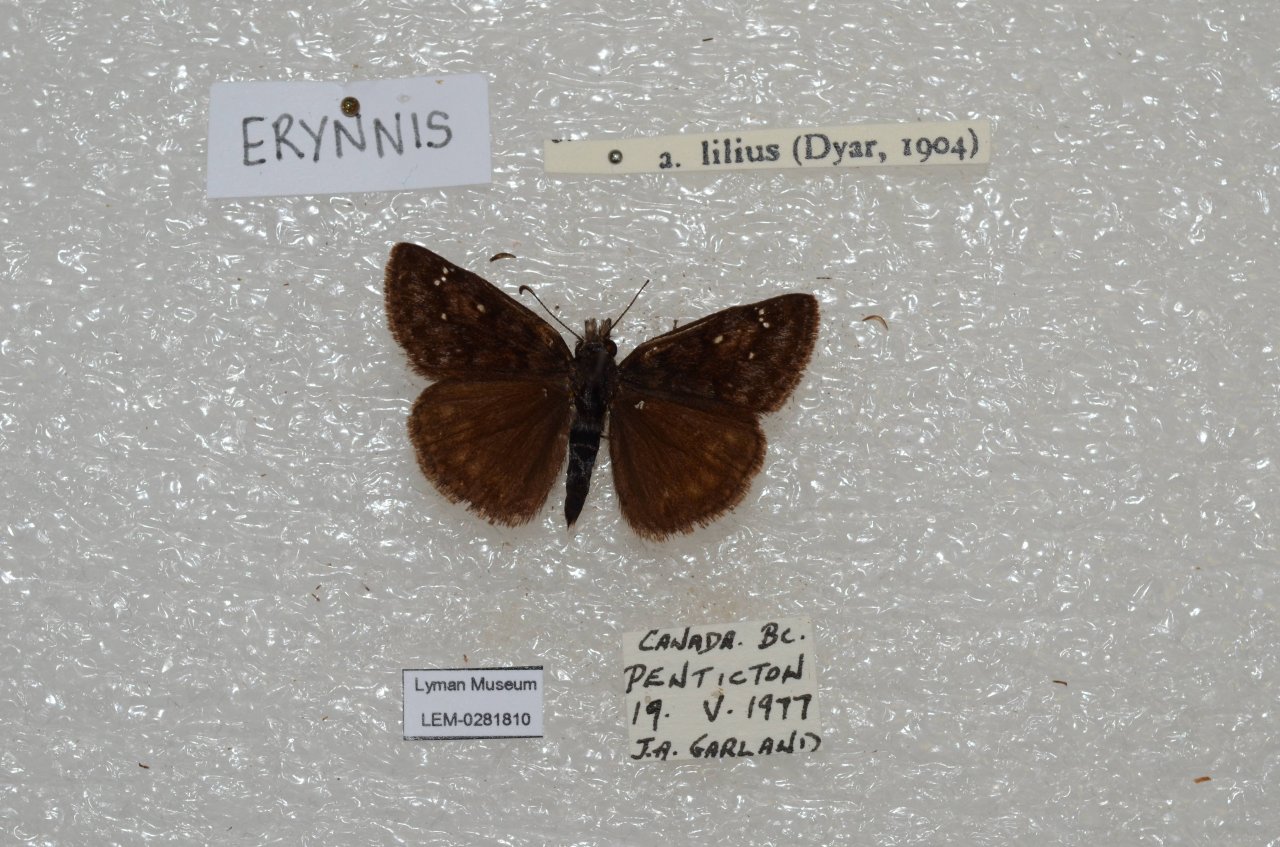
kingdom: Animalia
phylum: Arthropoda
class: Insecta
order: Lepidoptera
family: Hesperiidae
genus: Erynnis
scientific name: Erynnis pacuvius
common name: Pacuvius Duskywing
